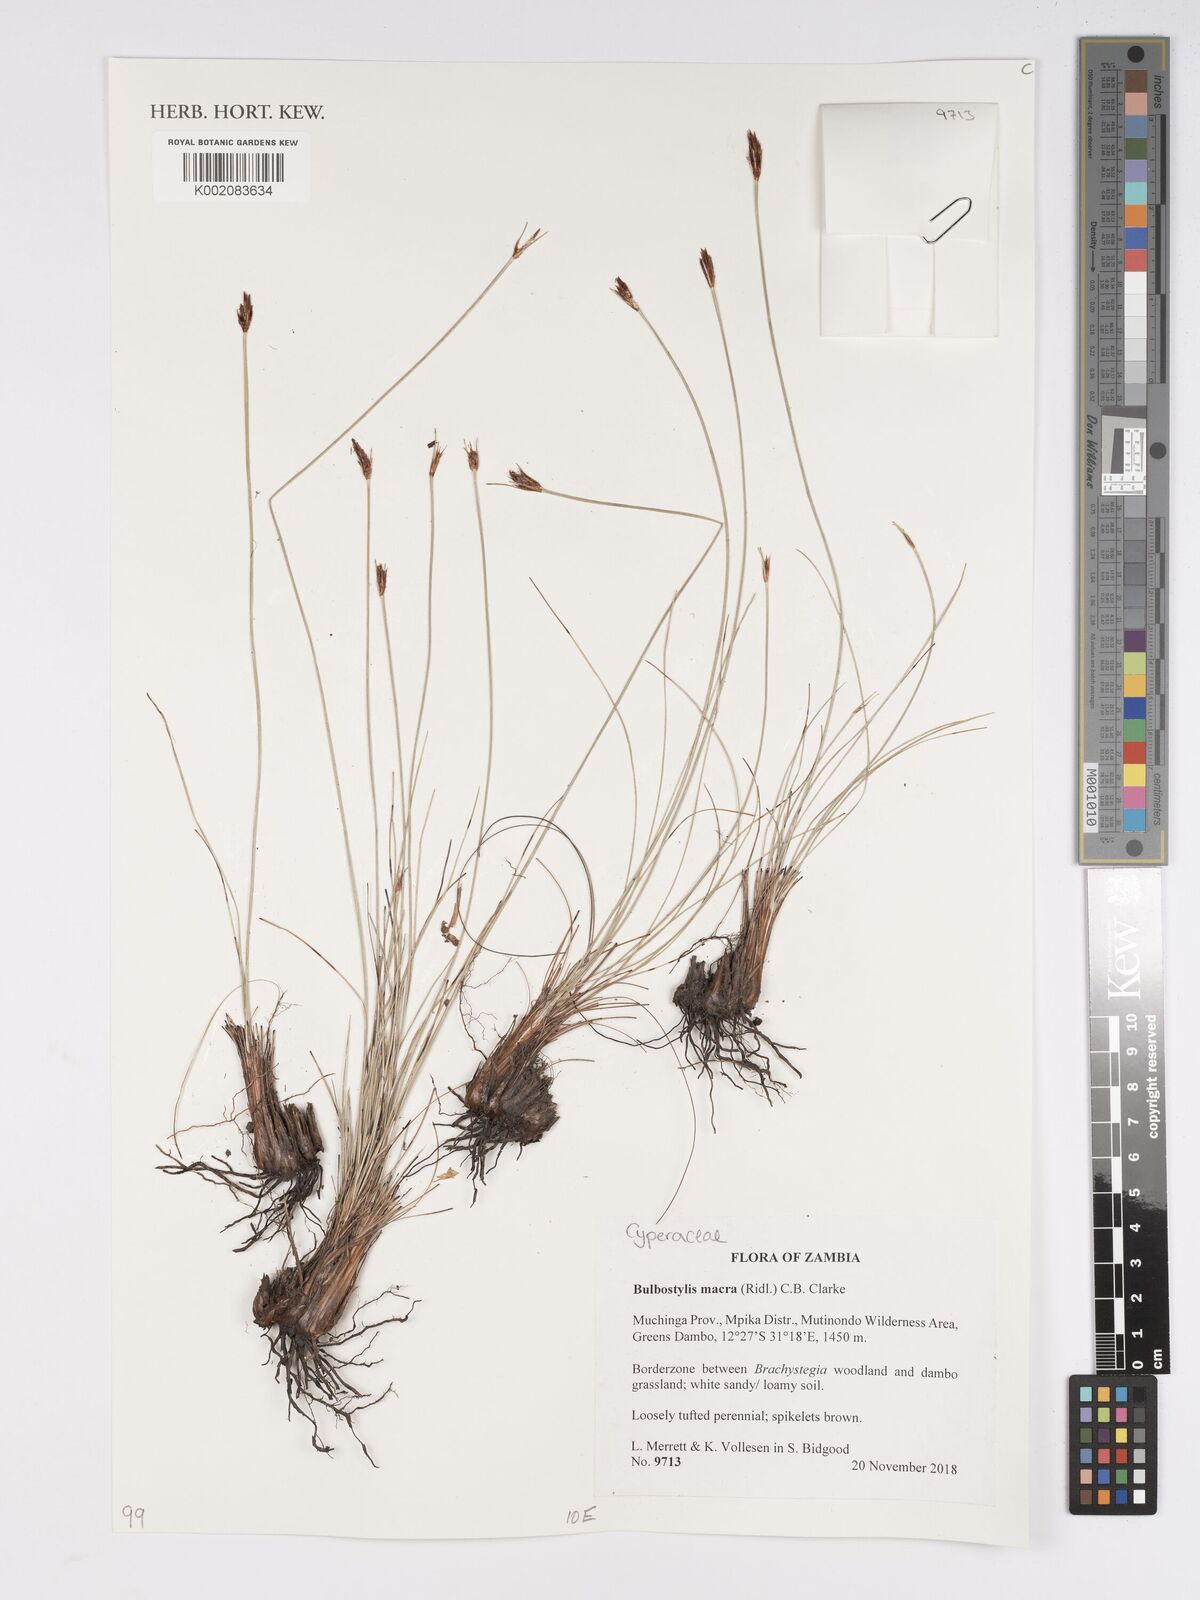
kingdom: Plantae
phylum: Tracheophyta
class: Liliopsida
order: Poales
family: Cyperaceae
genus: Bulbostylis
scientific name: Bulbostylis macra
